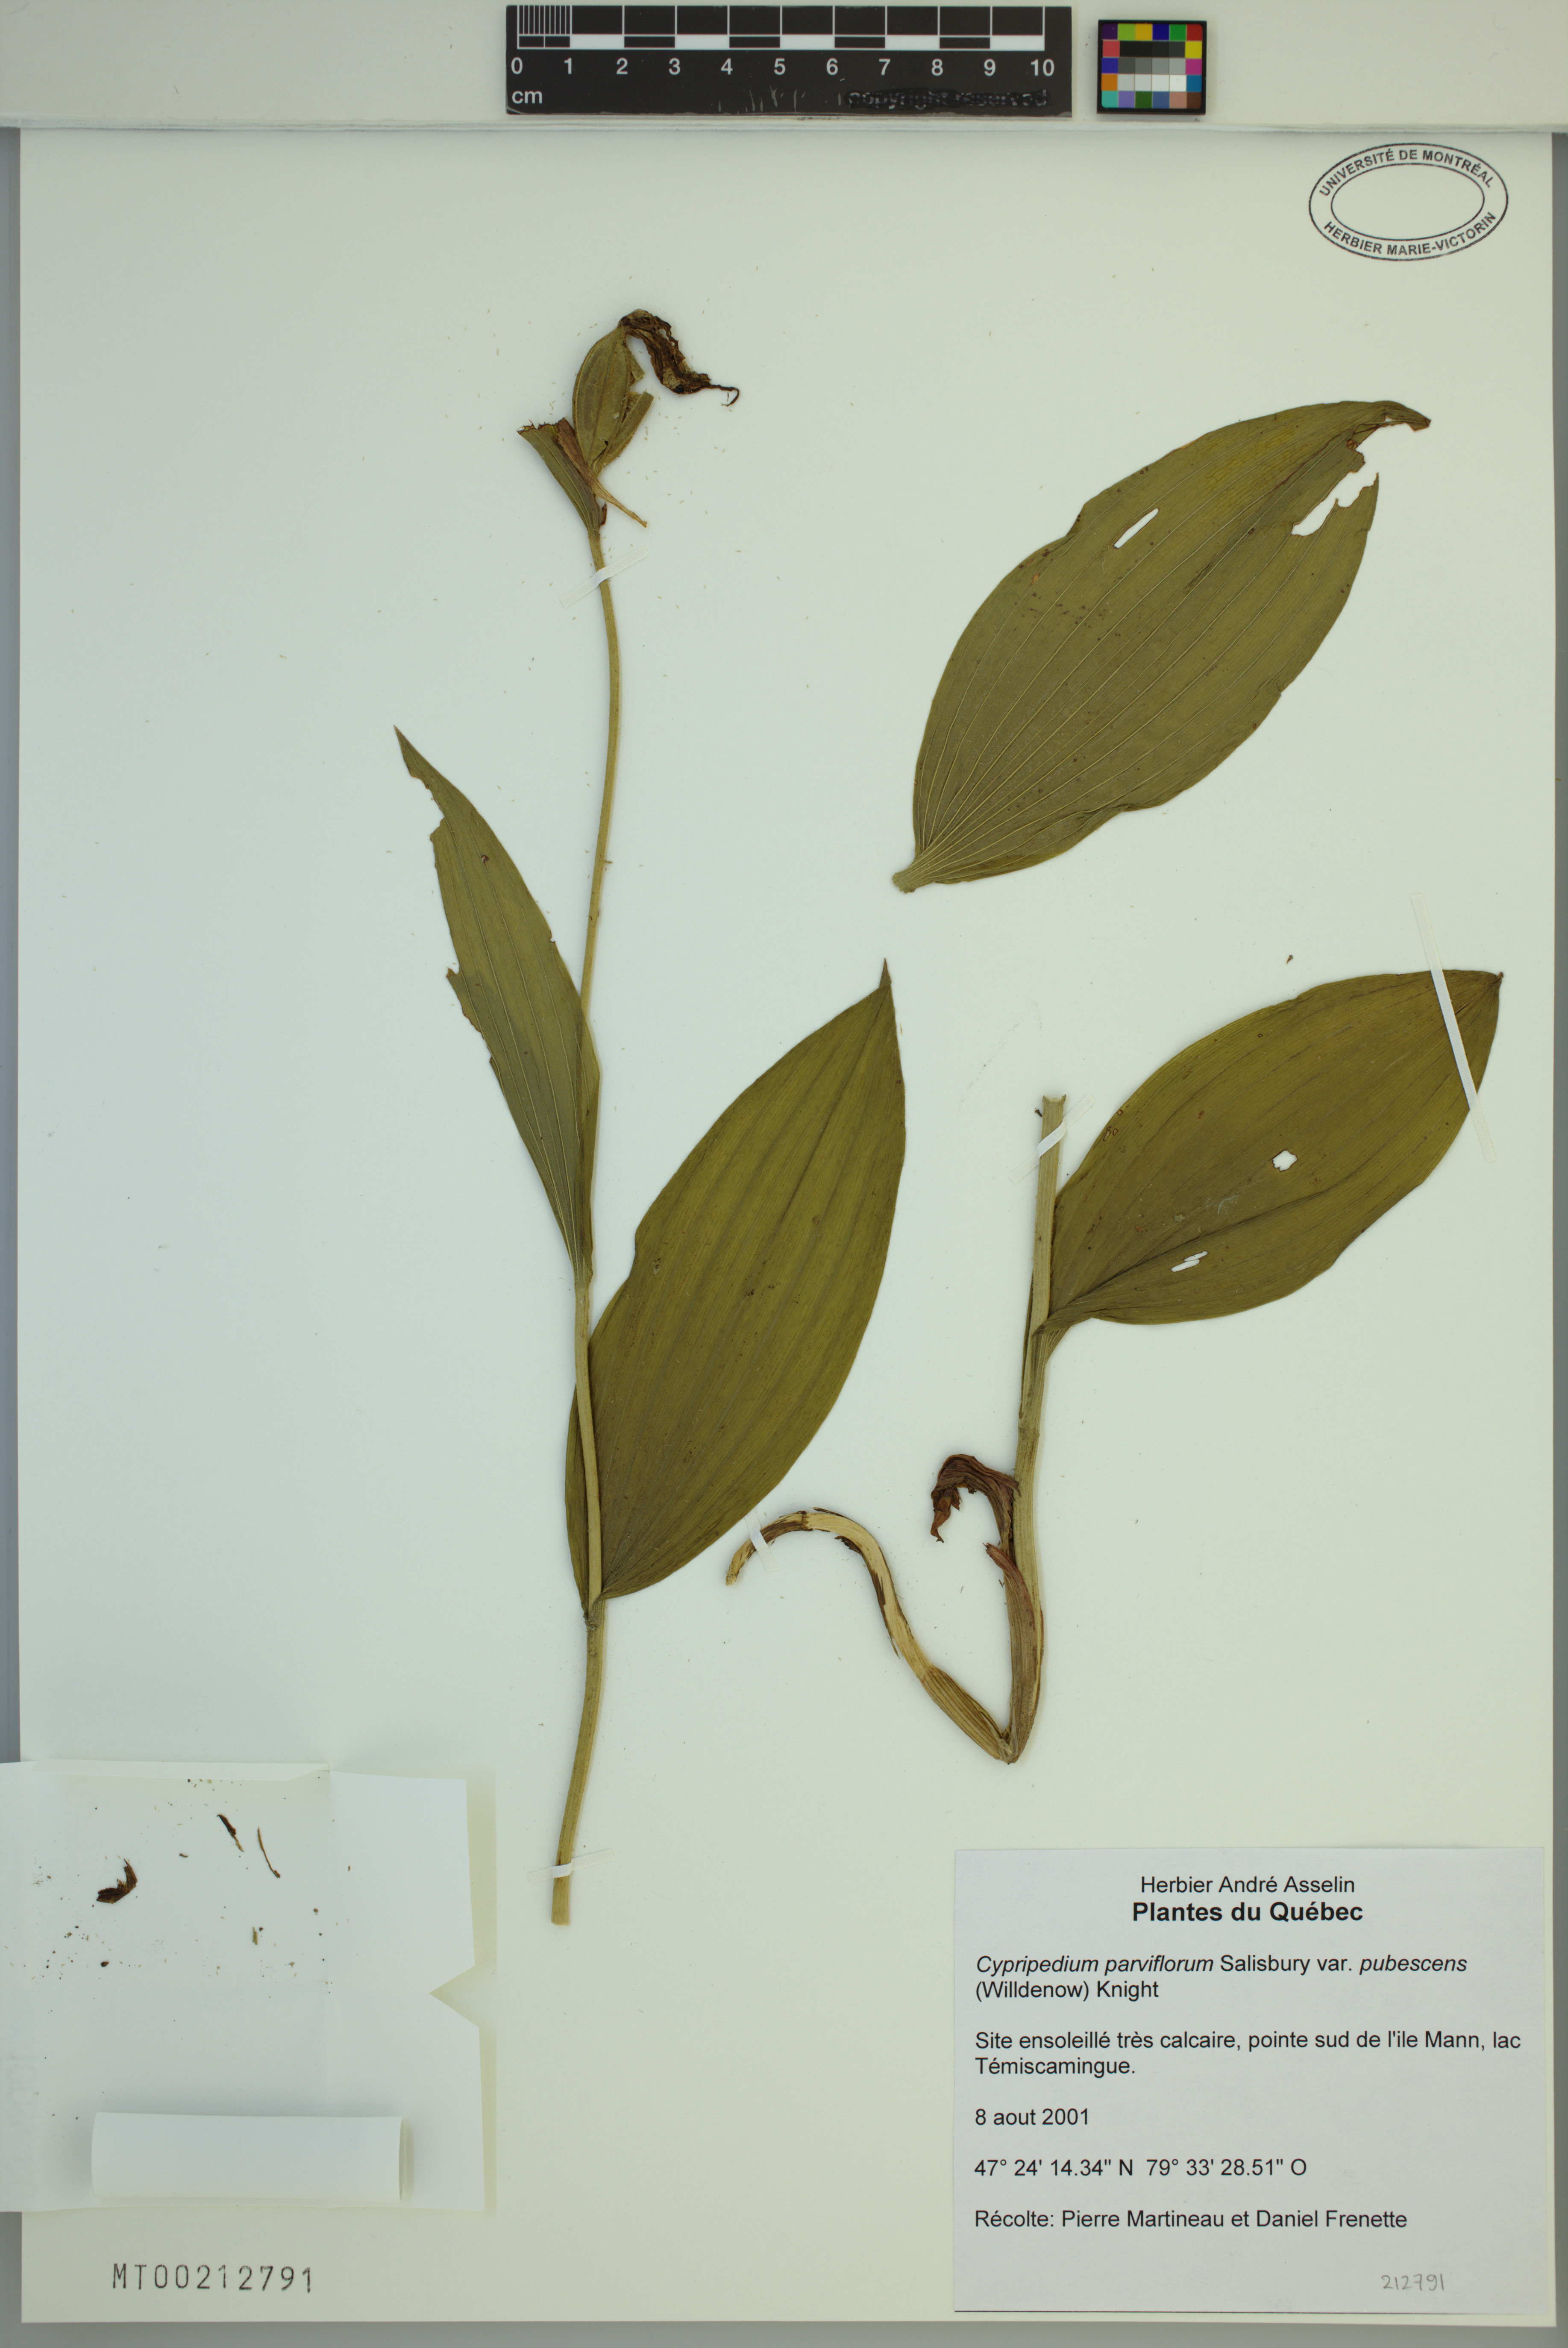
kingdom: Plantae
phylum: Tracheophyta
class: Liliopsida
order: Asparagales
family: Orchidaceae
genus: Cypripedium
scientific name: Cypripedium parviflorum
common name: American yellow lady's-slipper
